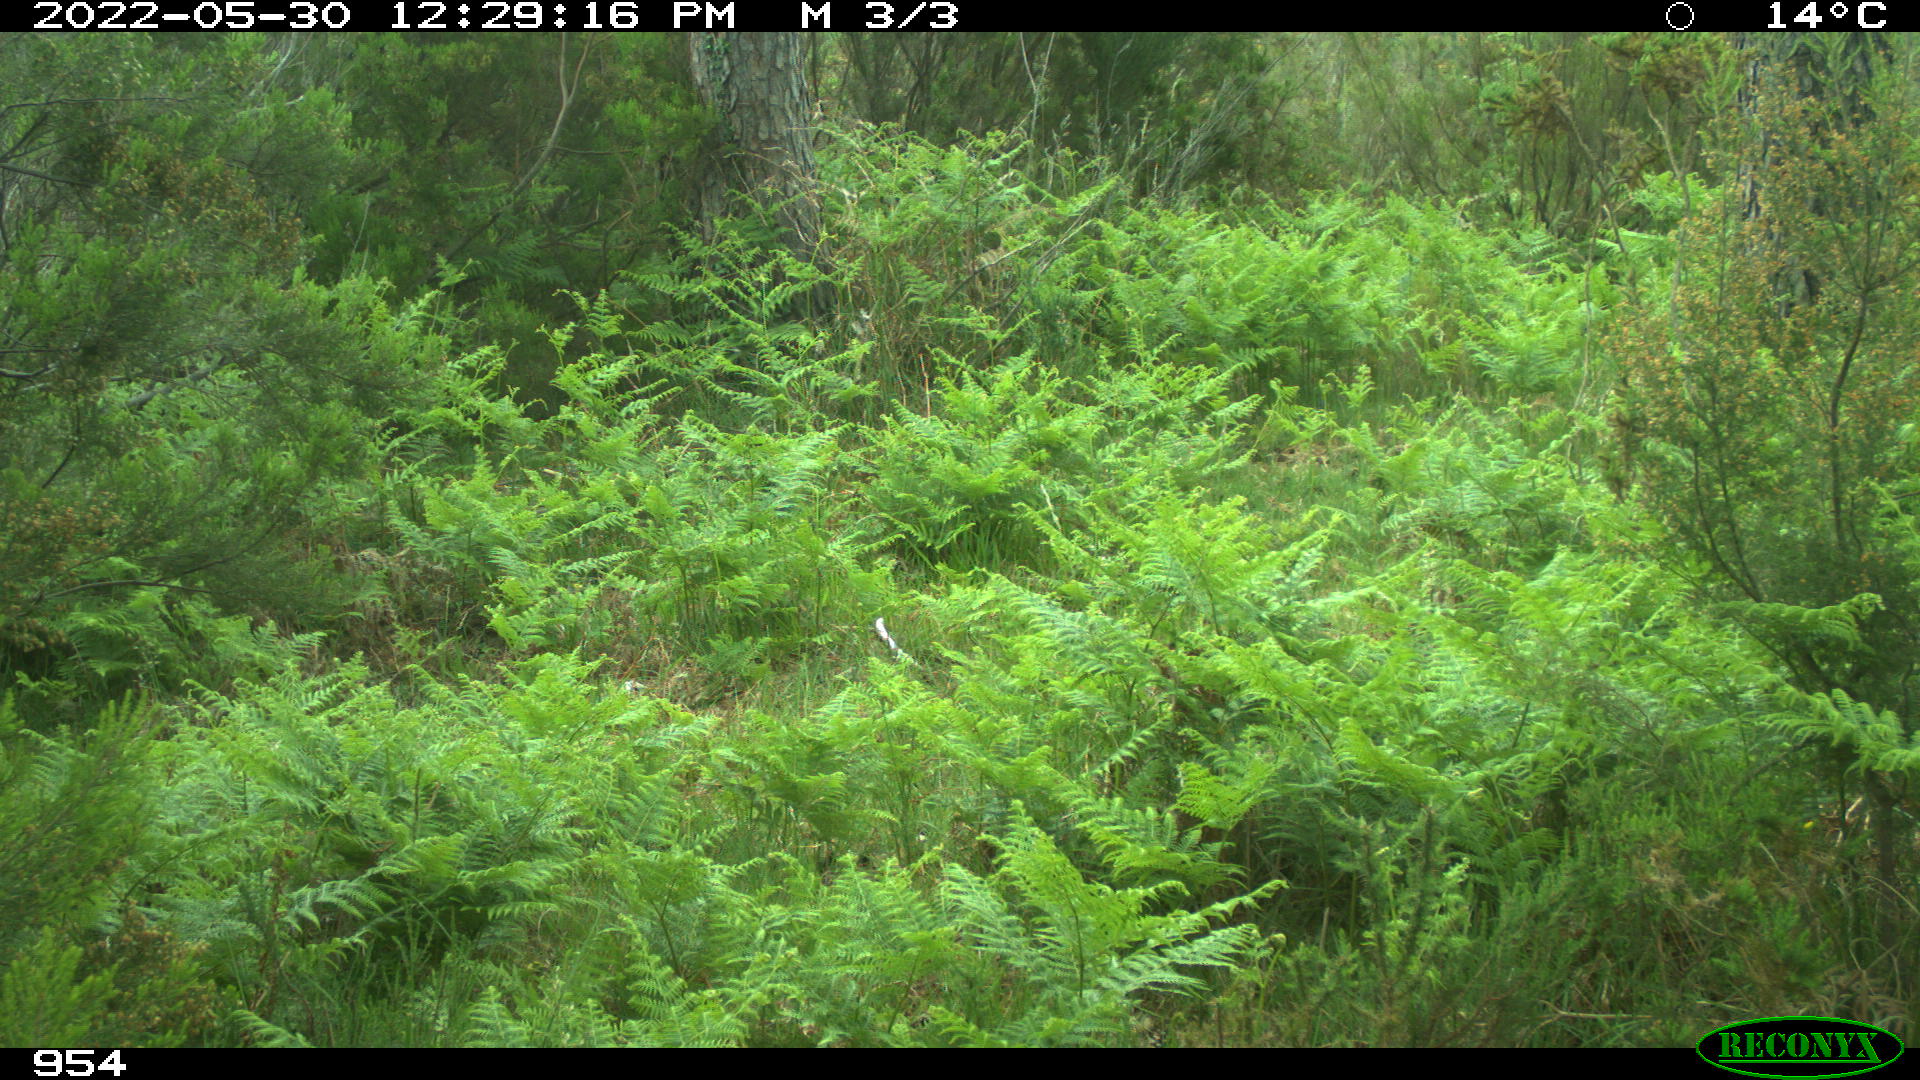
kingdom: Animalia
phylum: Chordata
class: Mammalia
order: Carnivora
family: Canidae
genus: Canis
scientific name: Canis lupus
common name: Gray wolf
